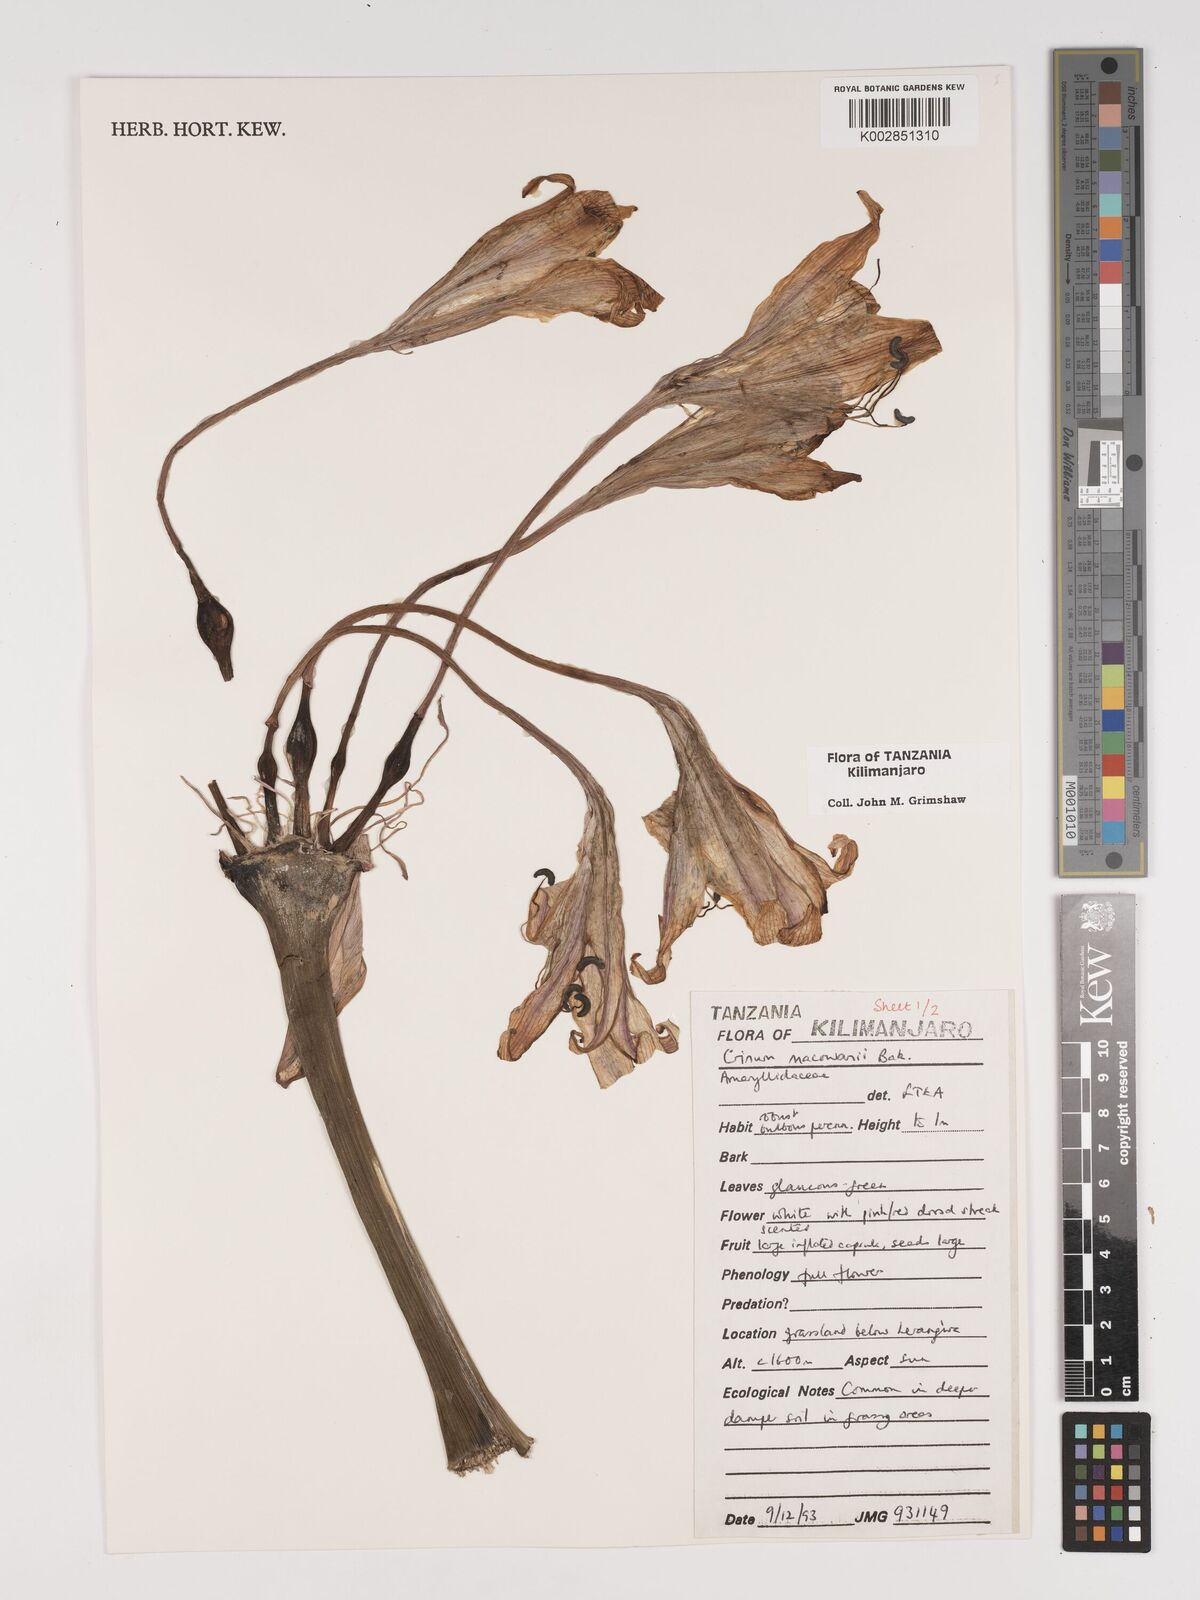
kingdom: Plantae
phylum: Tracheophyta
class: Liliopsida
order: Asparagales
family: Amaryllidaceae
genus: Crinum
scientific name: Crinum macowanii
